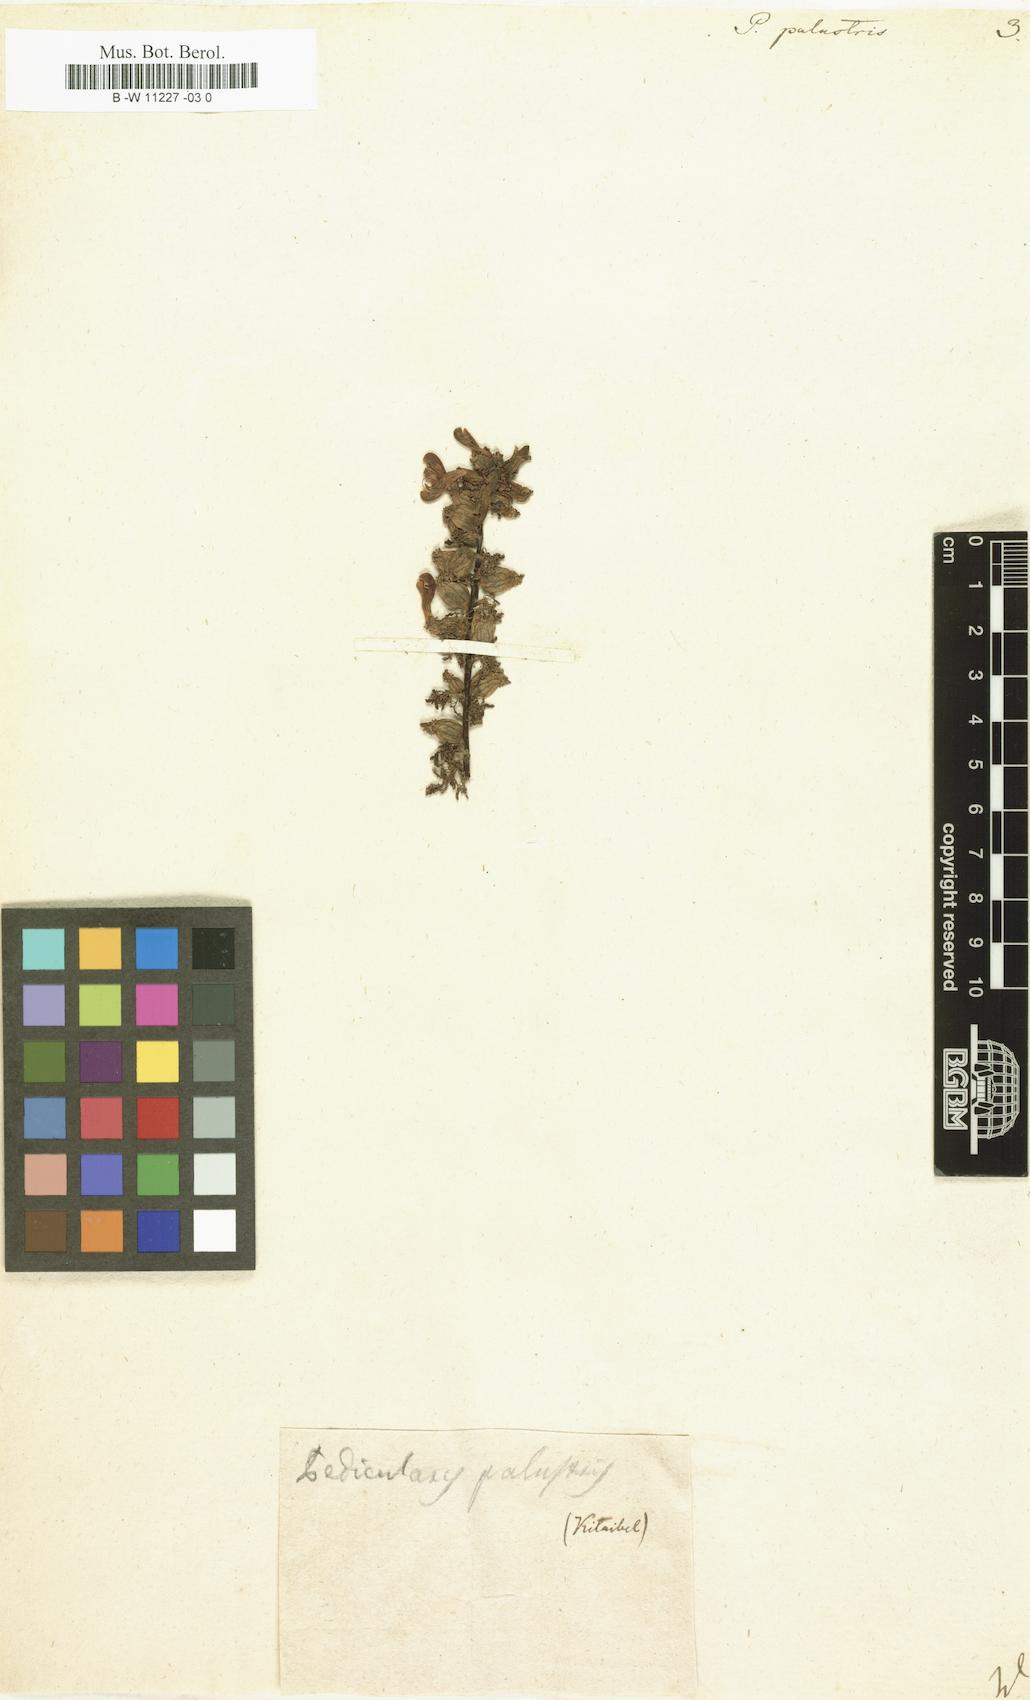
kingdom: Plantae
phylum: Tracheophyta
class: Magnoliopsida
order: Lamiales
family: Orobanchaceae
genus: Pedicularis
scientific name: Pedicularis palustris
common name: Marsh lousewort
